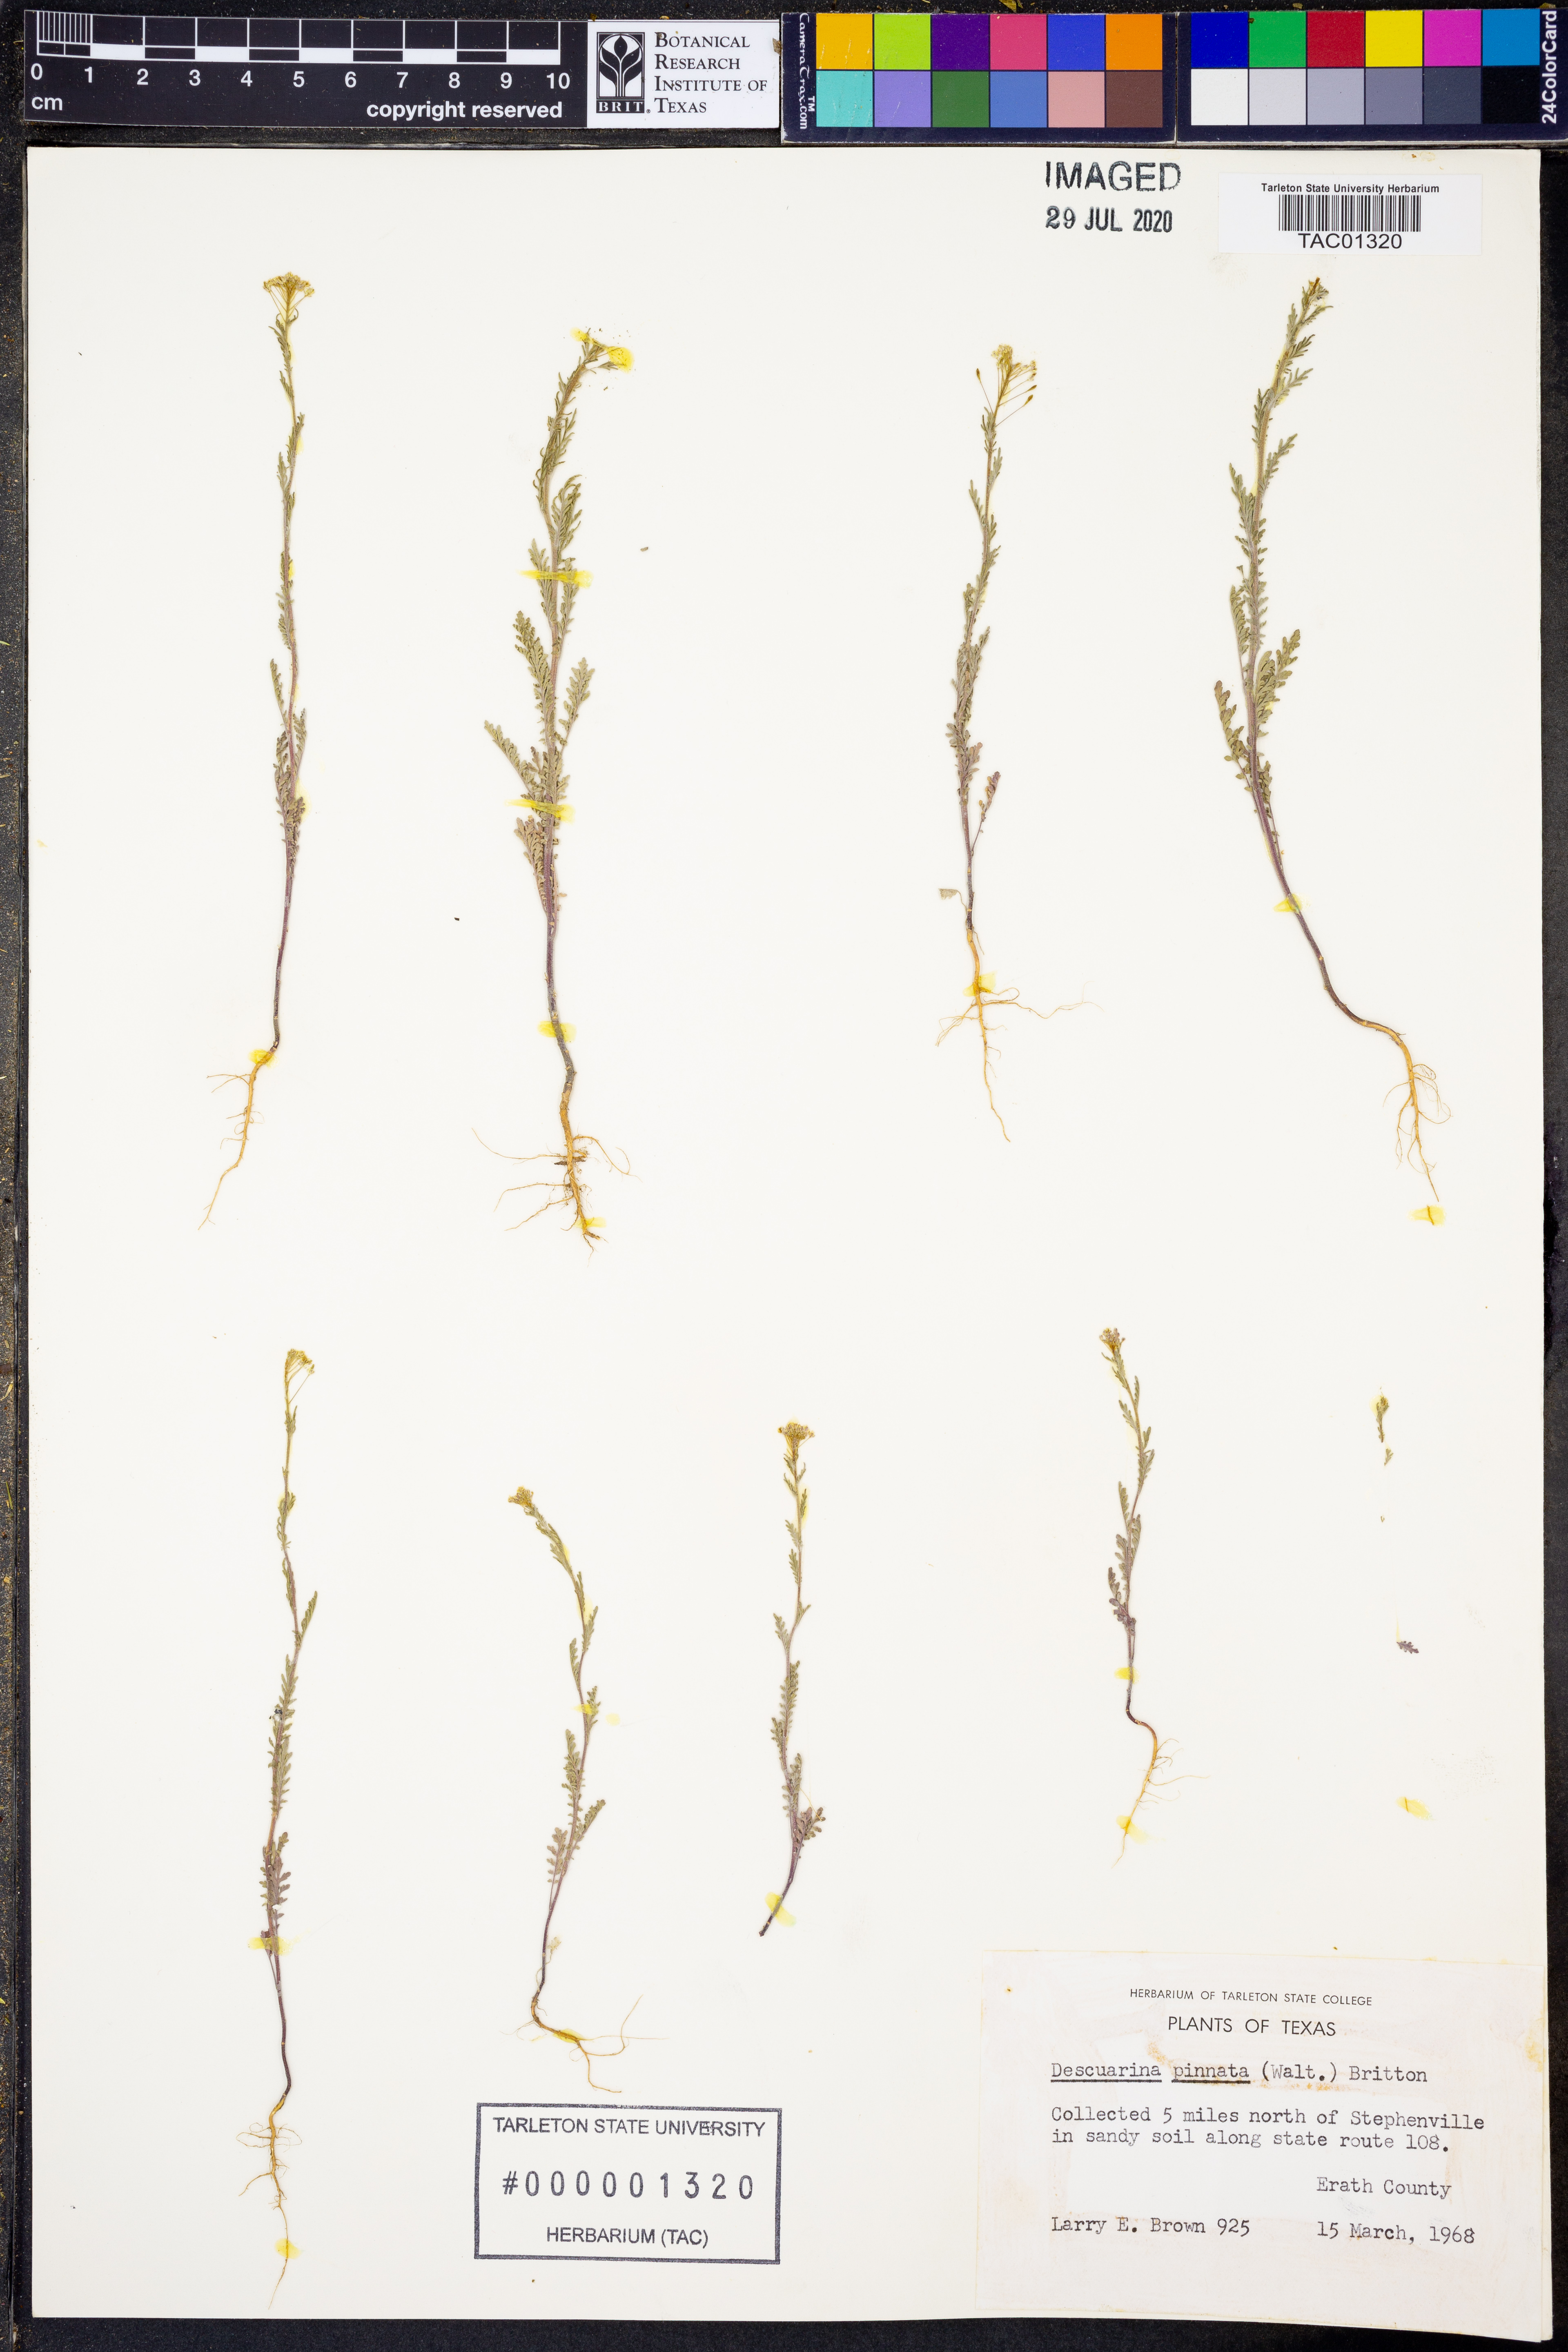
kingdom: Plantae
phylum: Tracheophyta
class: Magnoliopsida
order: Brassicales
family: Brassicaceae
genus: Descurainia
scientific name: Descurainia pinnata
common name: Western tansy mustard
